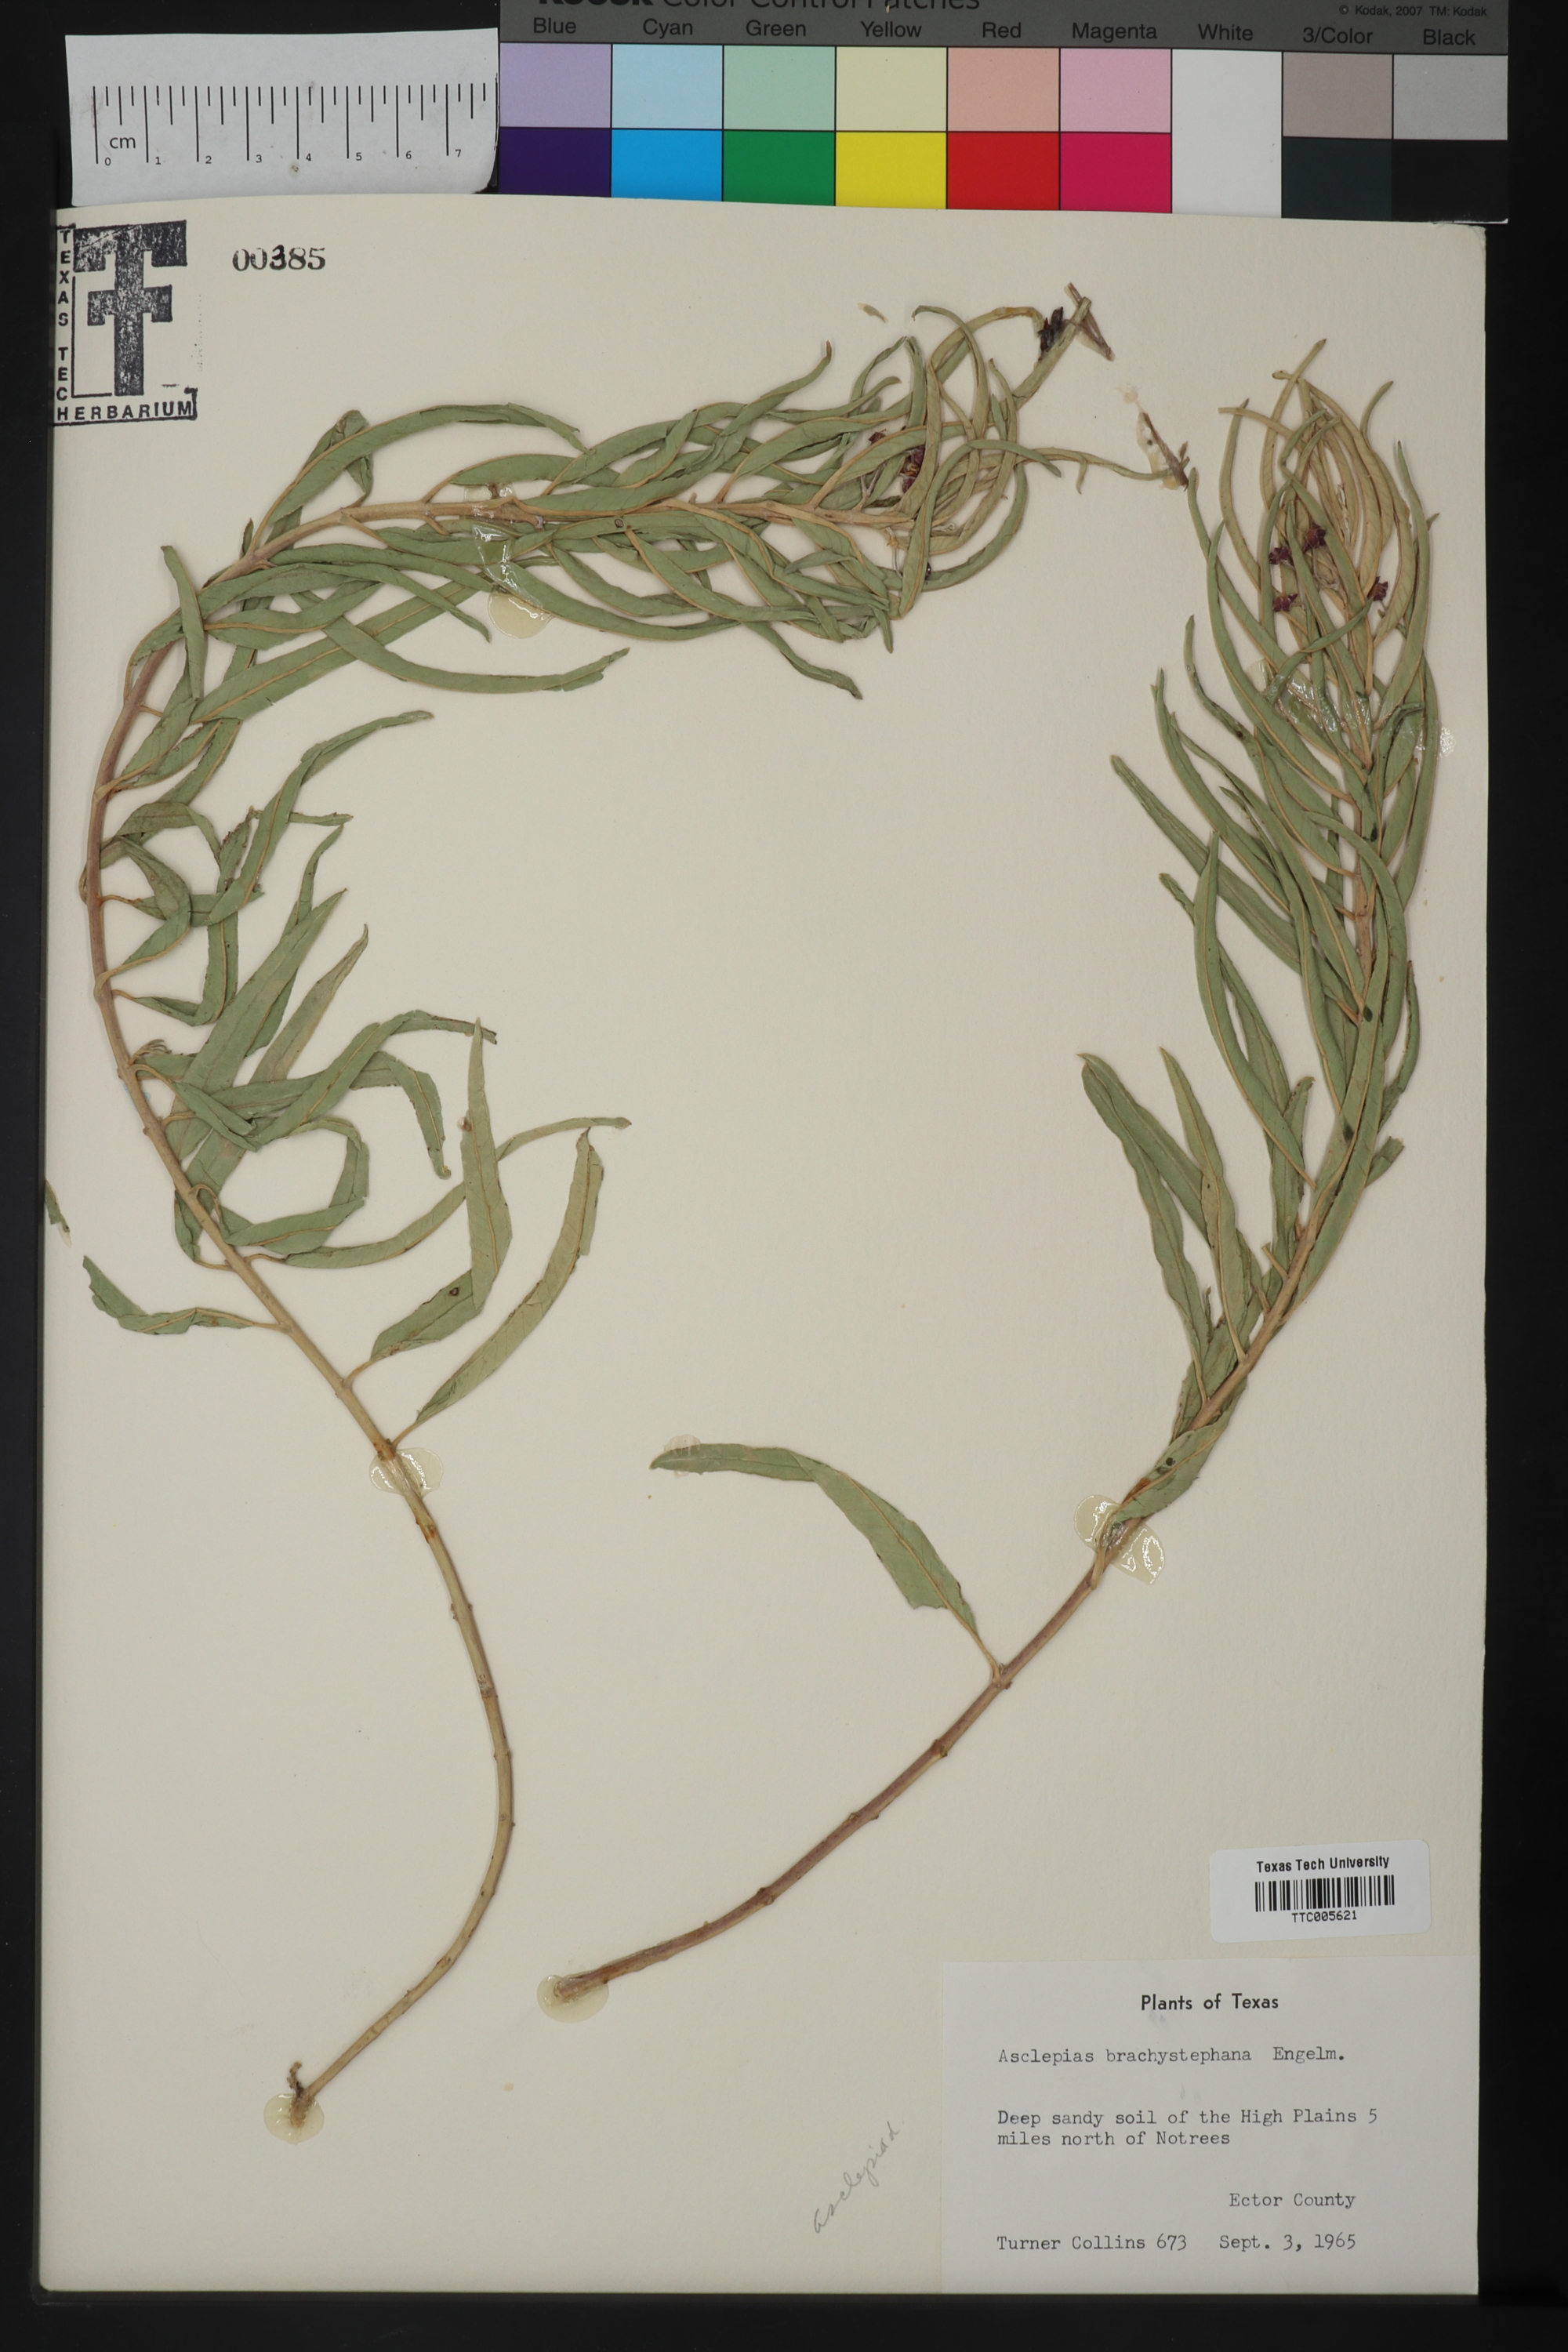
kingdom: Plantae
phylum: Tracheophyta
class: Magnoliopsida
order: Gentianales
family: Apocynaceae
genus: Asclepias
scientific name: Asclepias brachystephana
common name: Shortcrown milkweed
